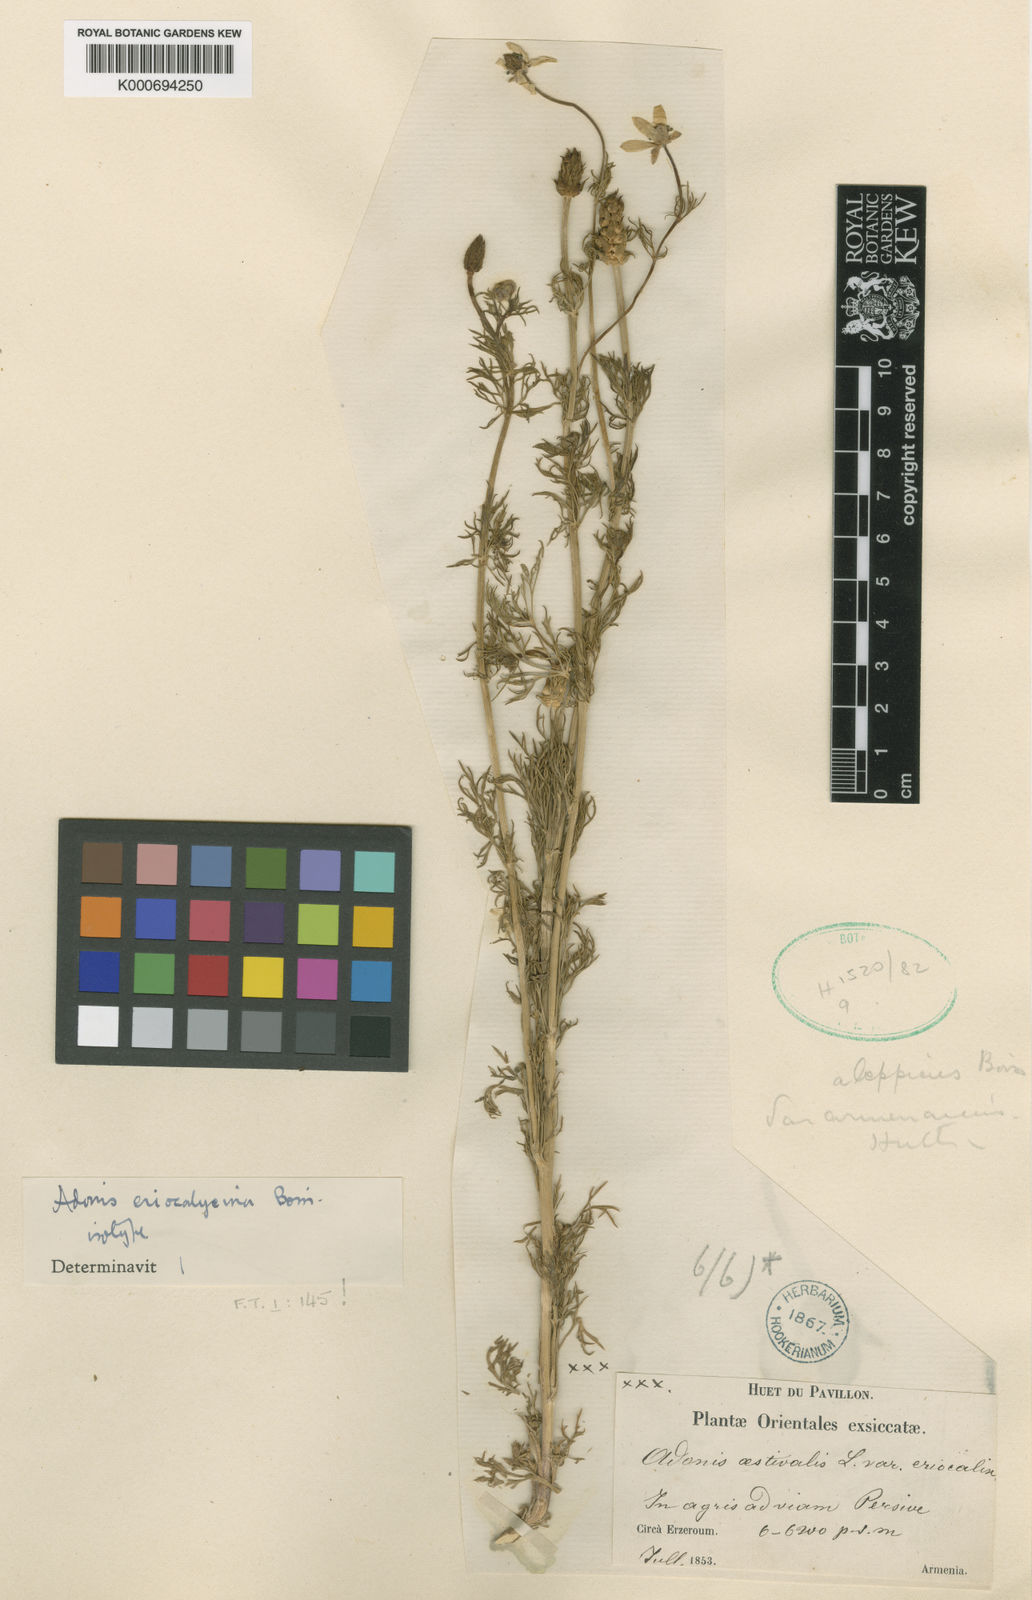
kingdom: Plantae
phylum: Tracheophyta
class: Magnoliopsida
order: Ranunculales
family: Ranunculaceae
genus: Adonis
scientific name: Adonis eriocalycina
